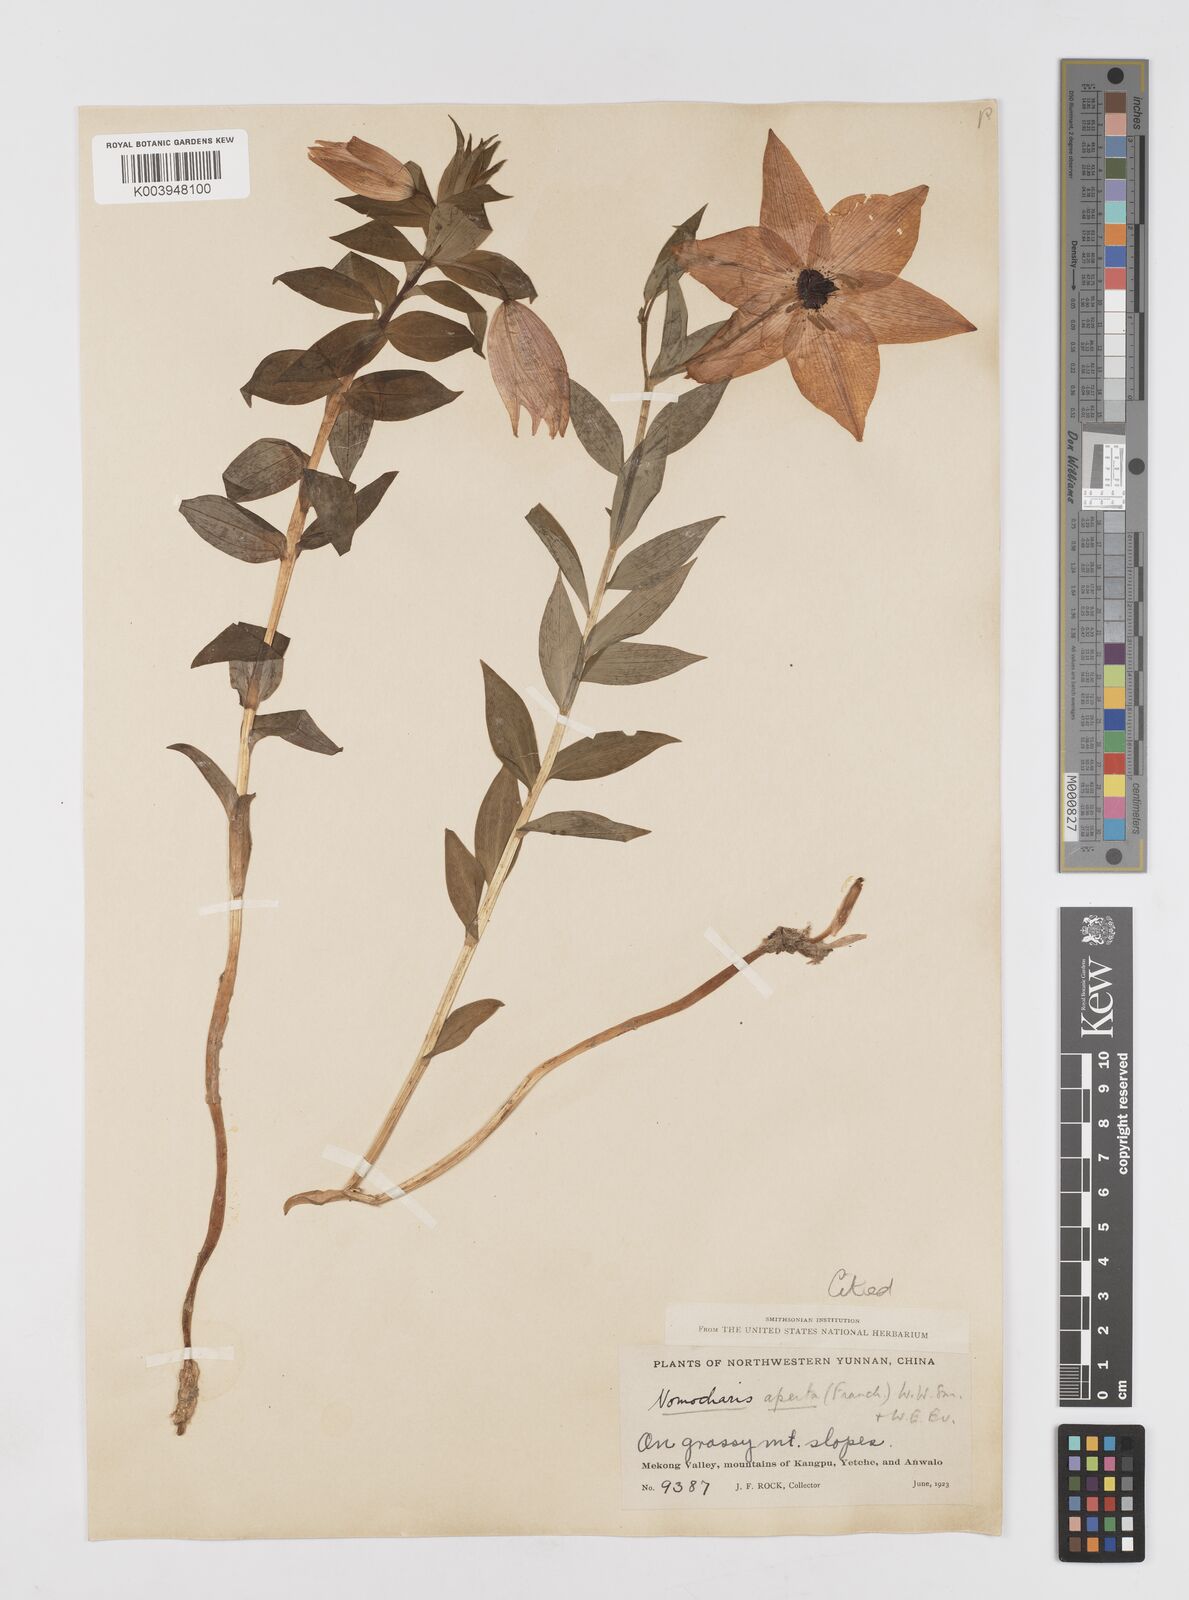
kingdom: Plantae
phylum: Tracheophyta
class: Liliopsida
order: Liliales
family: Liliaceae
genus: Lilium
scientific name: Lilium apertum
